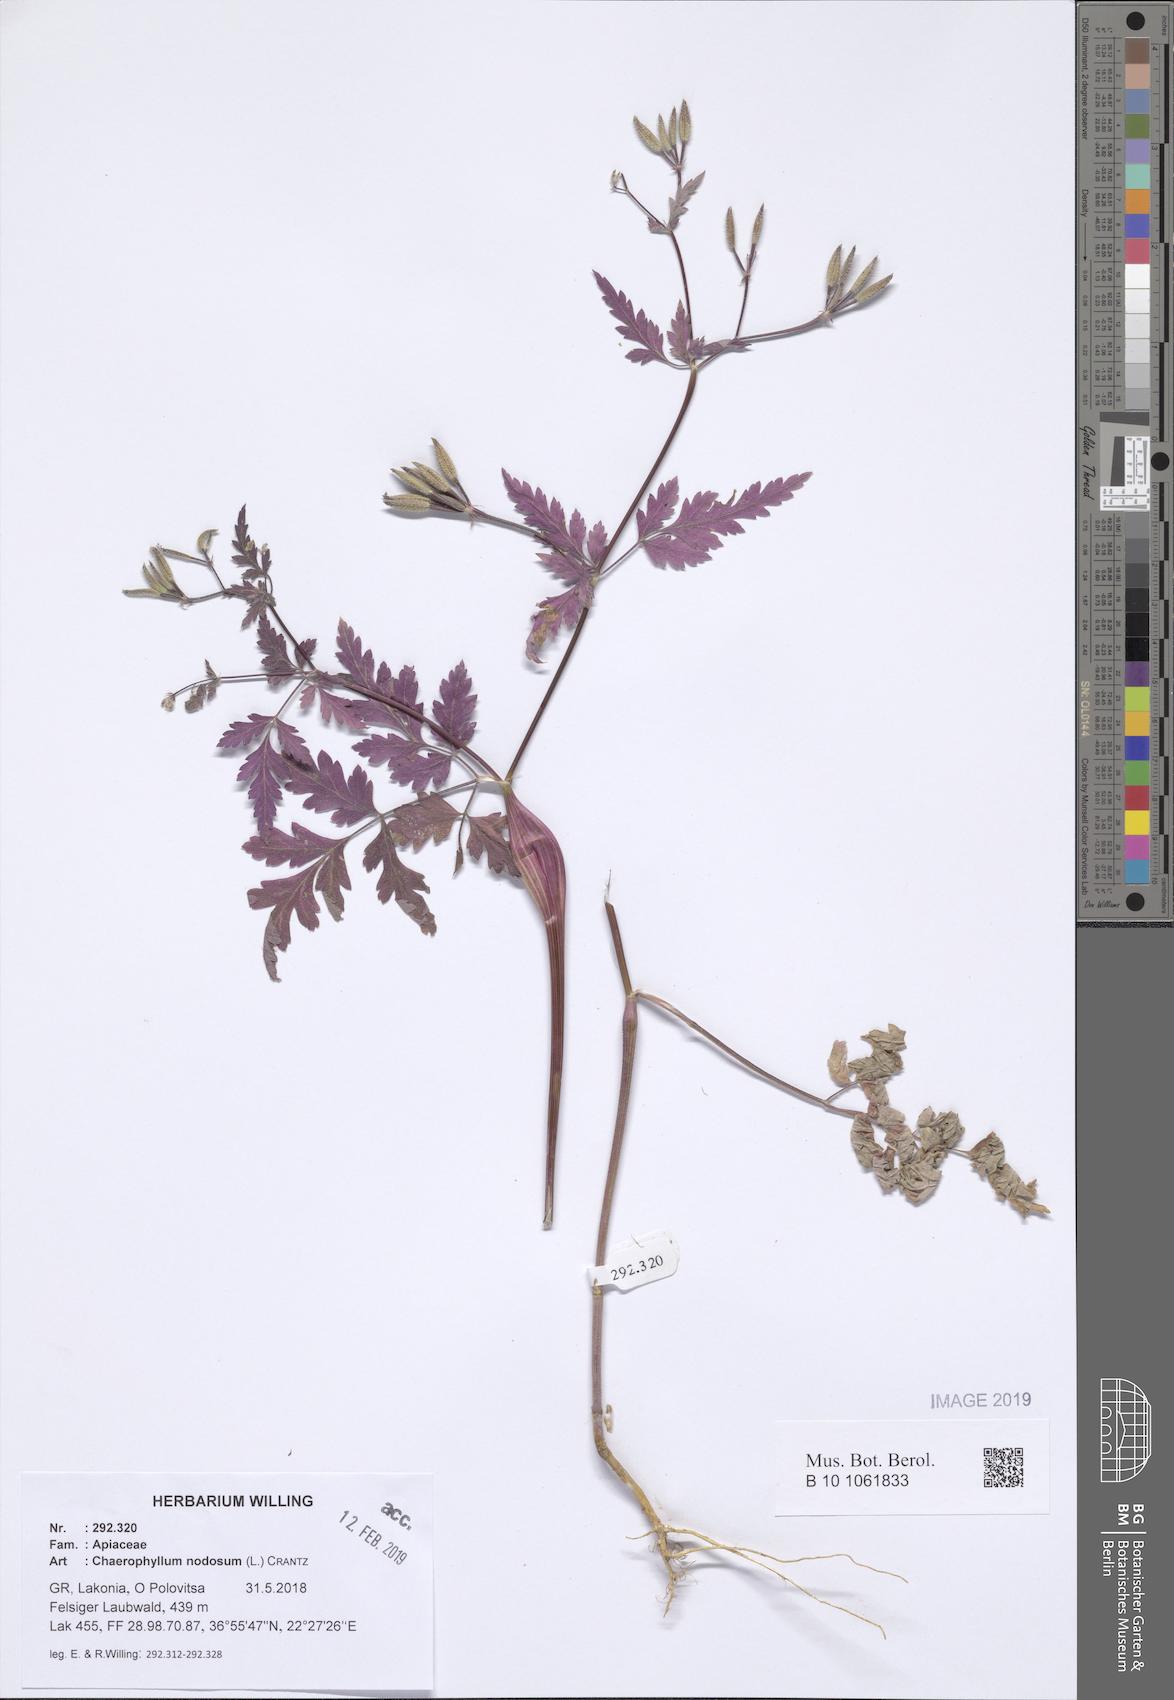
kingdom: Plantae
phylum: Tracheophyta
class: Magnoliopsida
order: Apiales
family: Apiaceae
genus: Chaerophyllum
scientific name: Chaerophyllum nodosum
